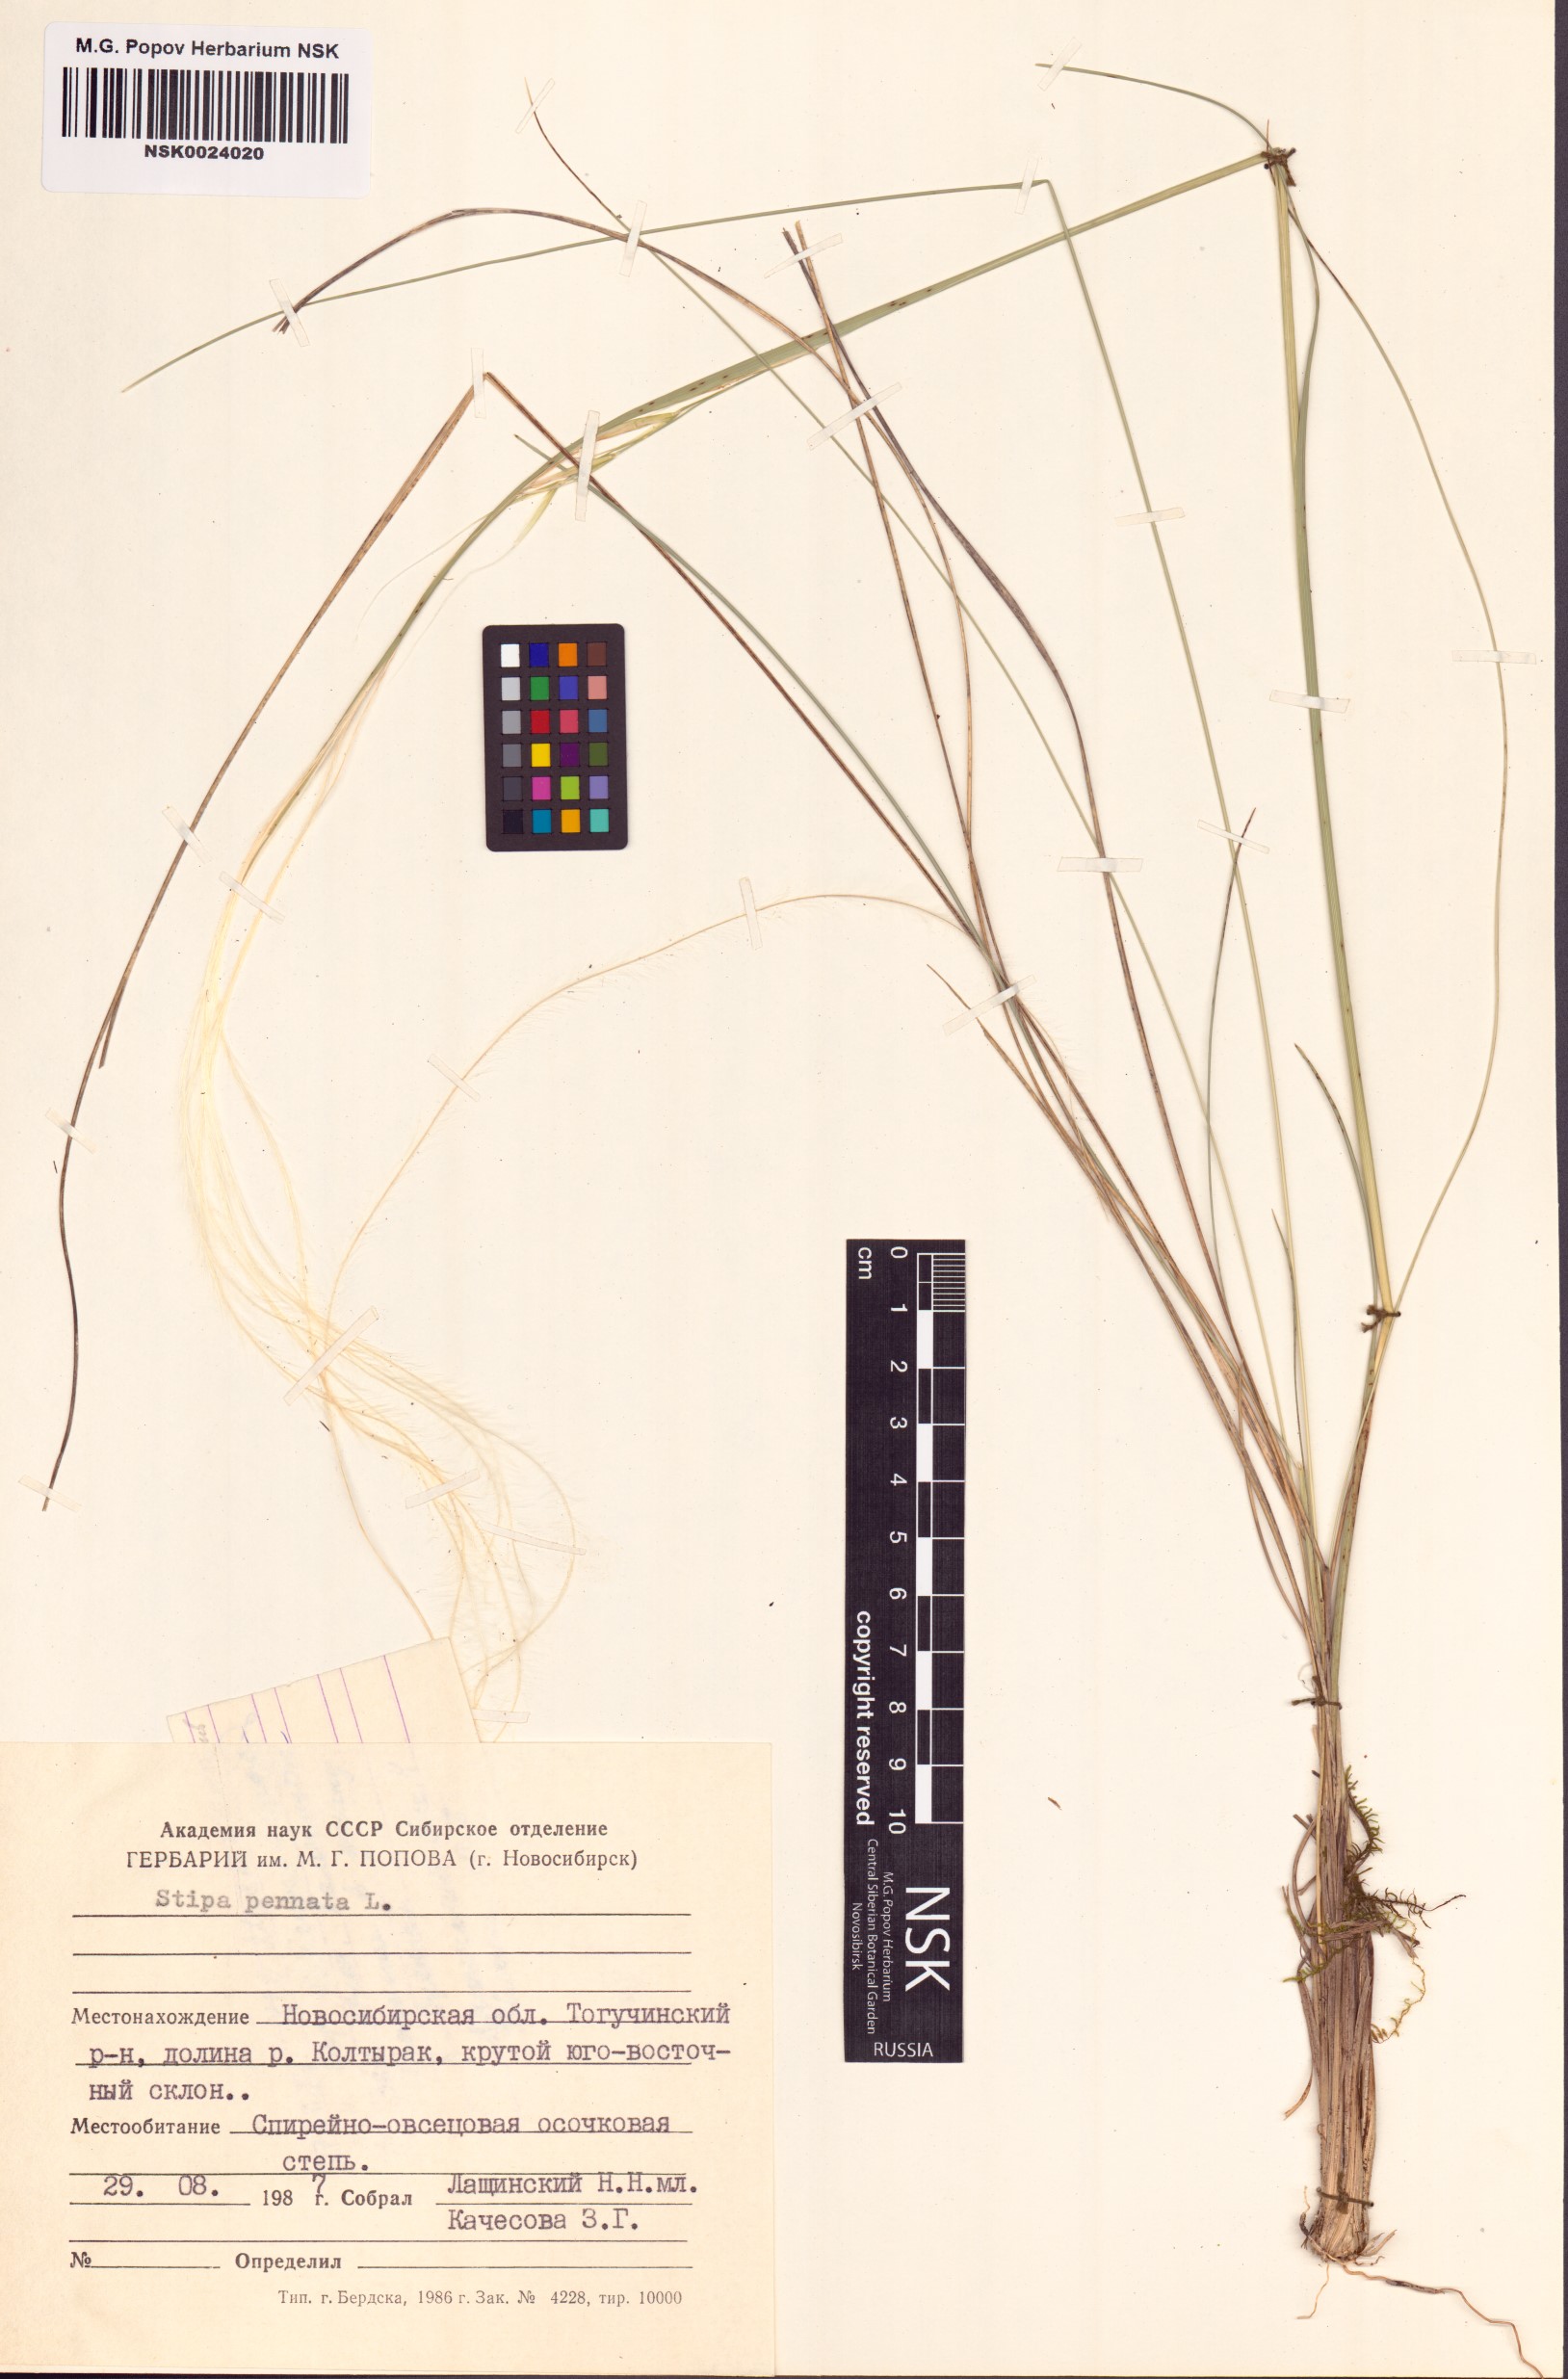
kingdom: Plantae
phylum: Tracheophyta
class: Liliopsida
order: Poales
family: Poaceae
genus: Stipa
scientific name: Stipa pennata
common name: European feather grass
